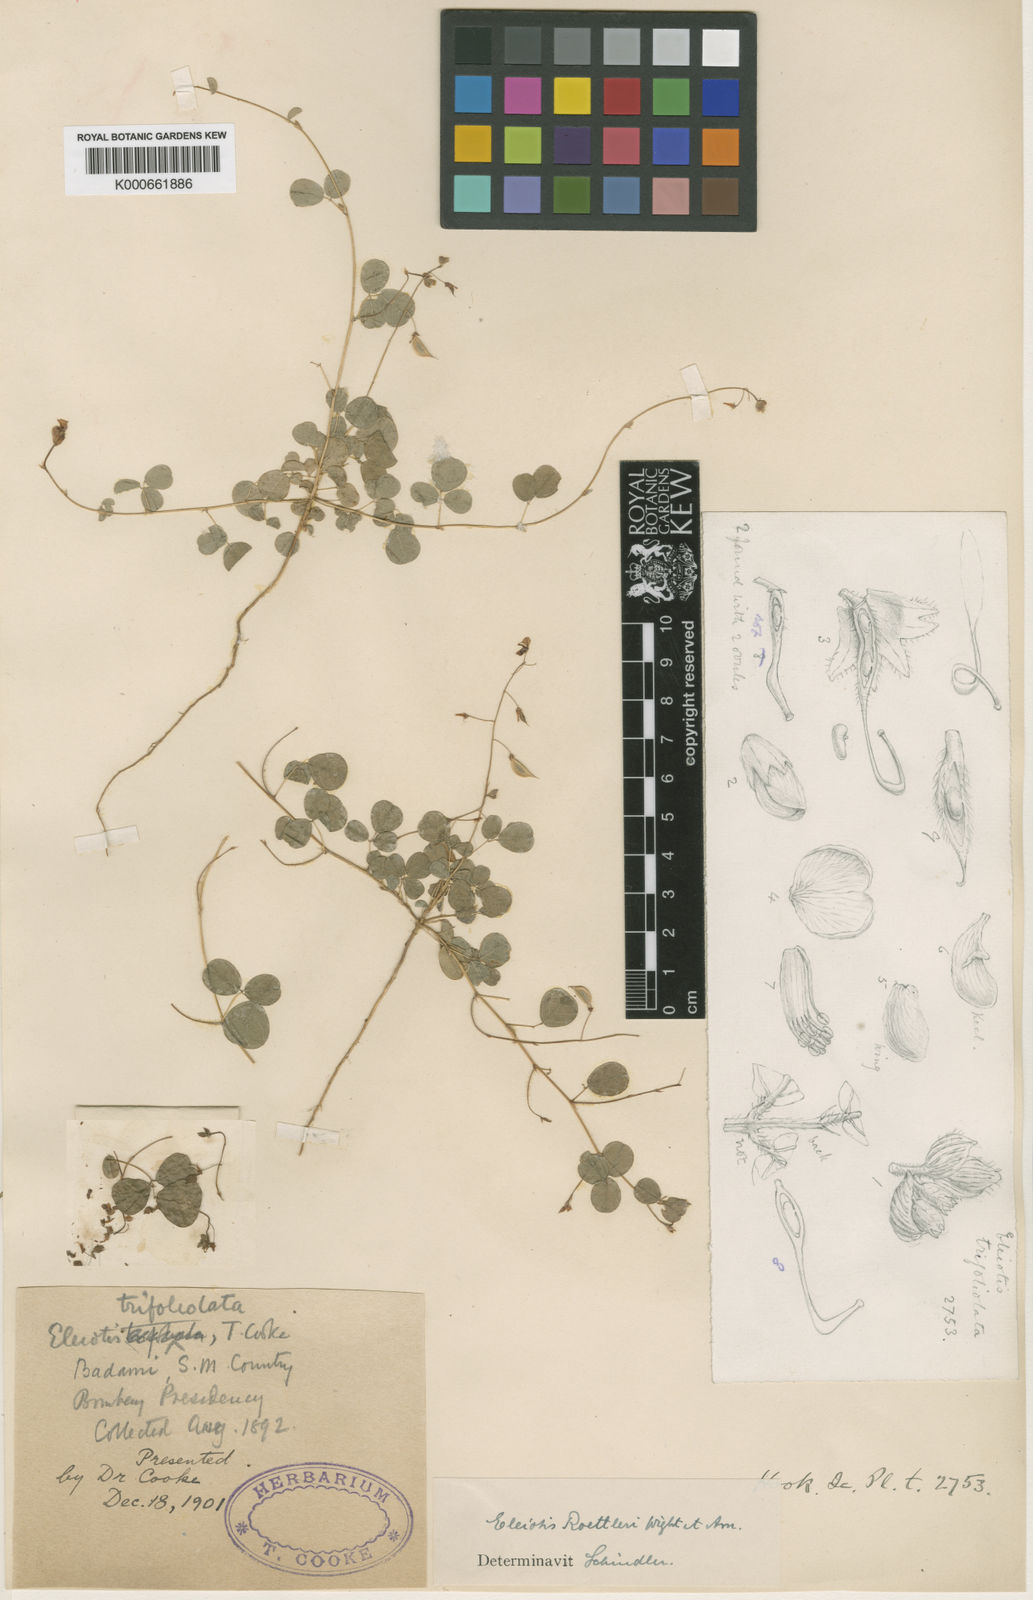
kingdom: Plantae
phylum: Tracheophyta
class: Magnoliopsida
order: Fabales
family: Fabaceae
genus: Eleiotis
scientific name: Eleiotis rottleri
